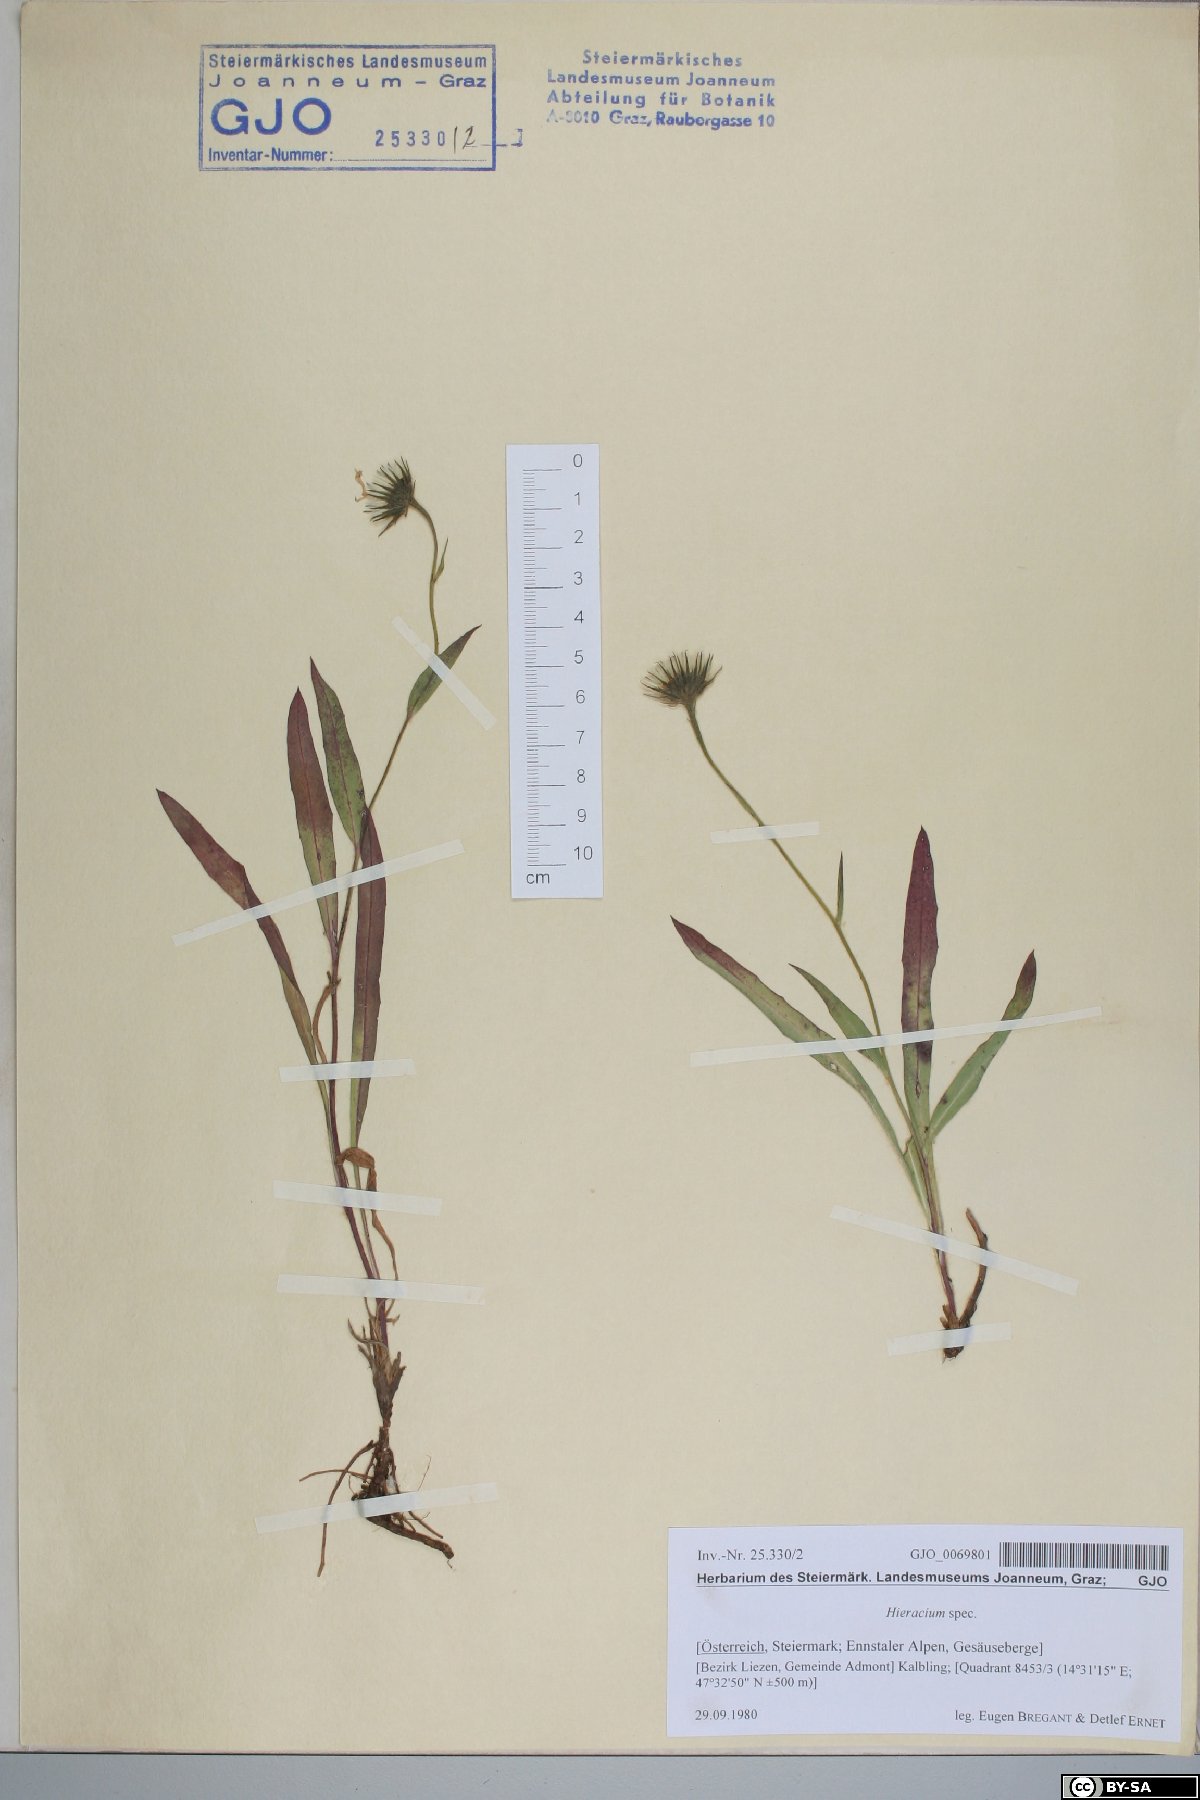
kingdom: Plantae
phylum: Tracheophyta
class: Magnoliopsida
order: Asterales
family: Asteraceae
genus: Hieracium
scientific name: Hieracium
